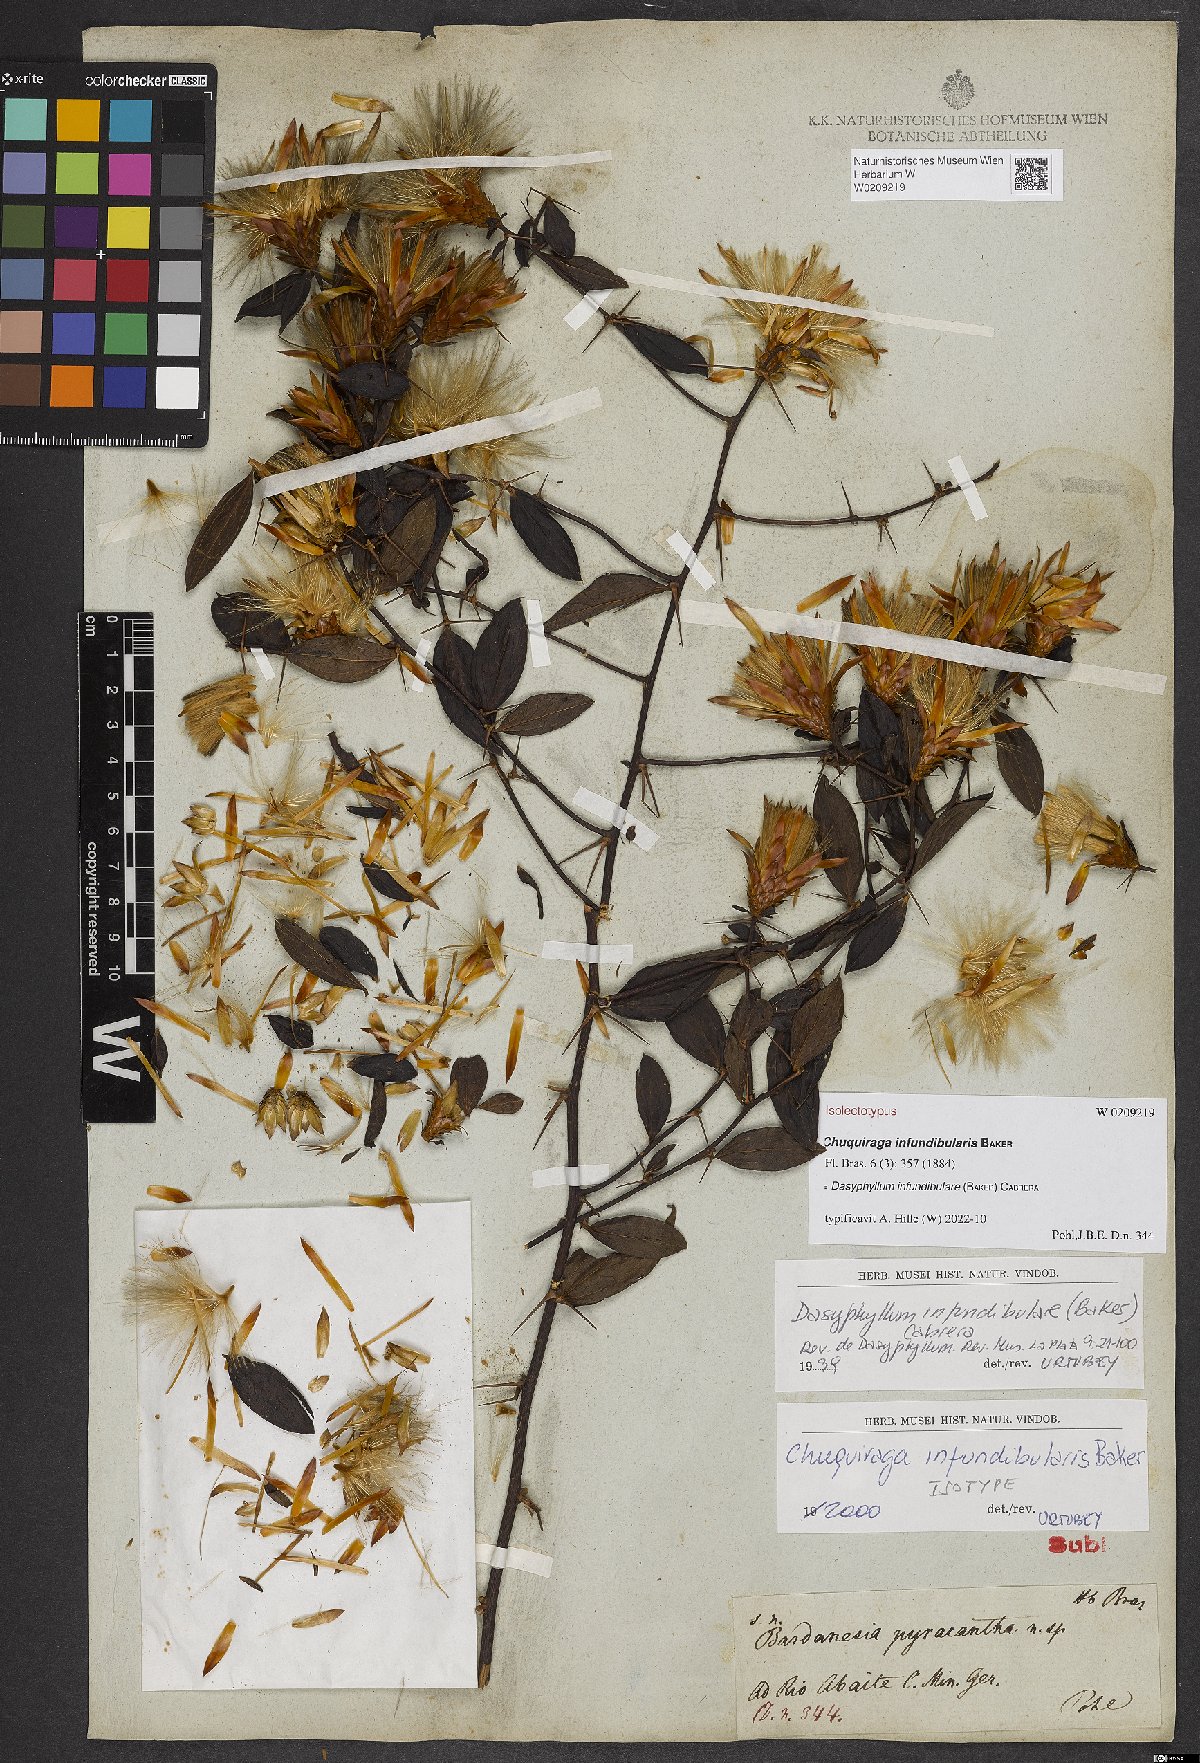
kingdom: Plantae
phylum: Tracheophyta
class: Magnoliopsida
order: Asterales
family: Asteraceae
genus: Dasyphyllum
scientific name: Dasyphyllum donianum
